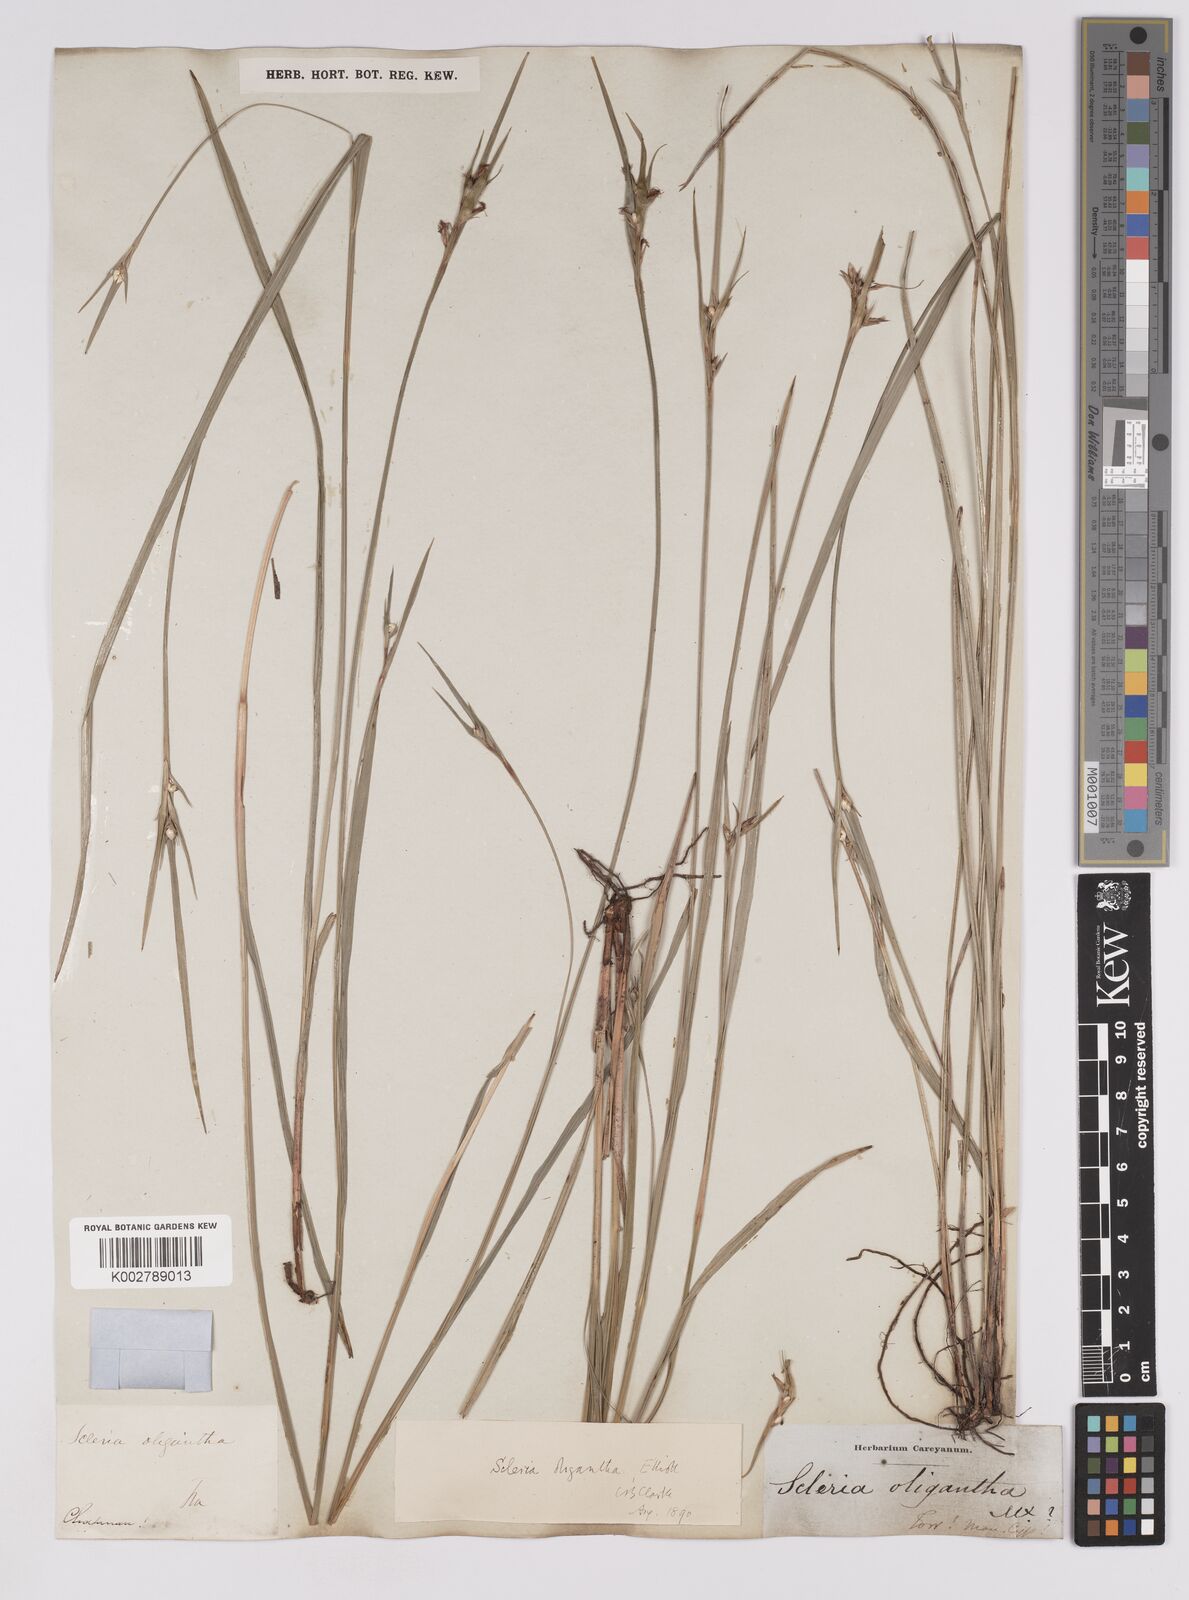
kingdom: Plantae
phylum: Tracheophyta
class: Liliopsida
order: Poales
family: Cyperaceae
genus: Scleria
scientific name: Scleria oligantha
